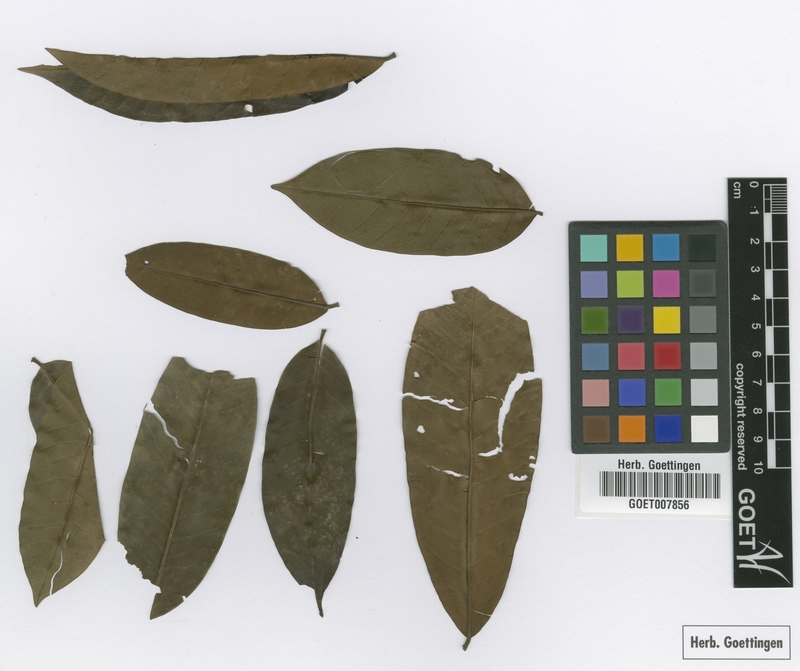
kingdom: Plantae
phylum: Tracheophyta
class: Magnoliopsida
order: Sapindales
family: Meliaceae
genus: Trichilia
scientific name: Trichilia welwitschii
